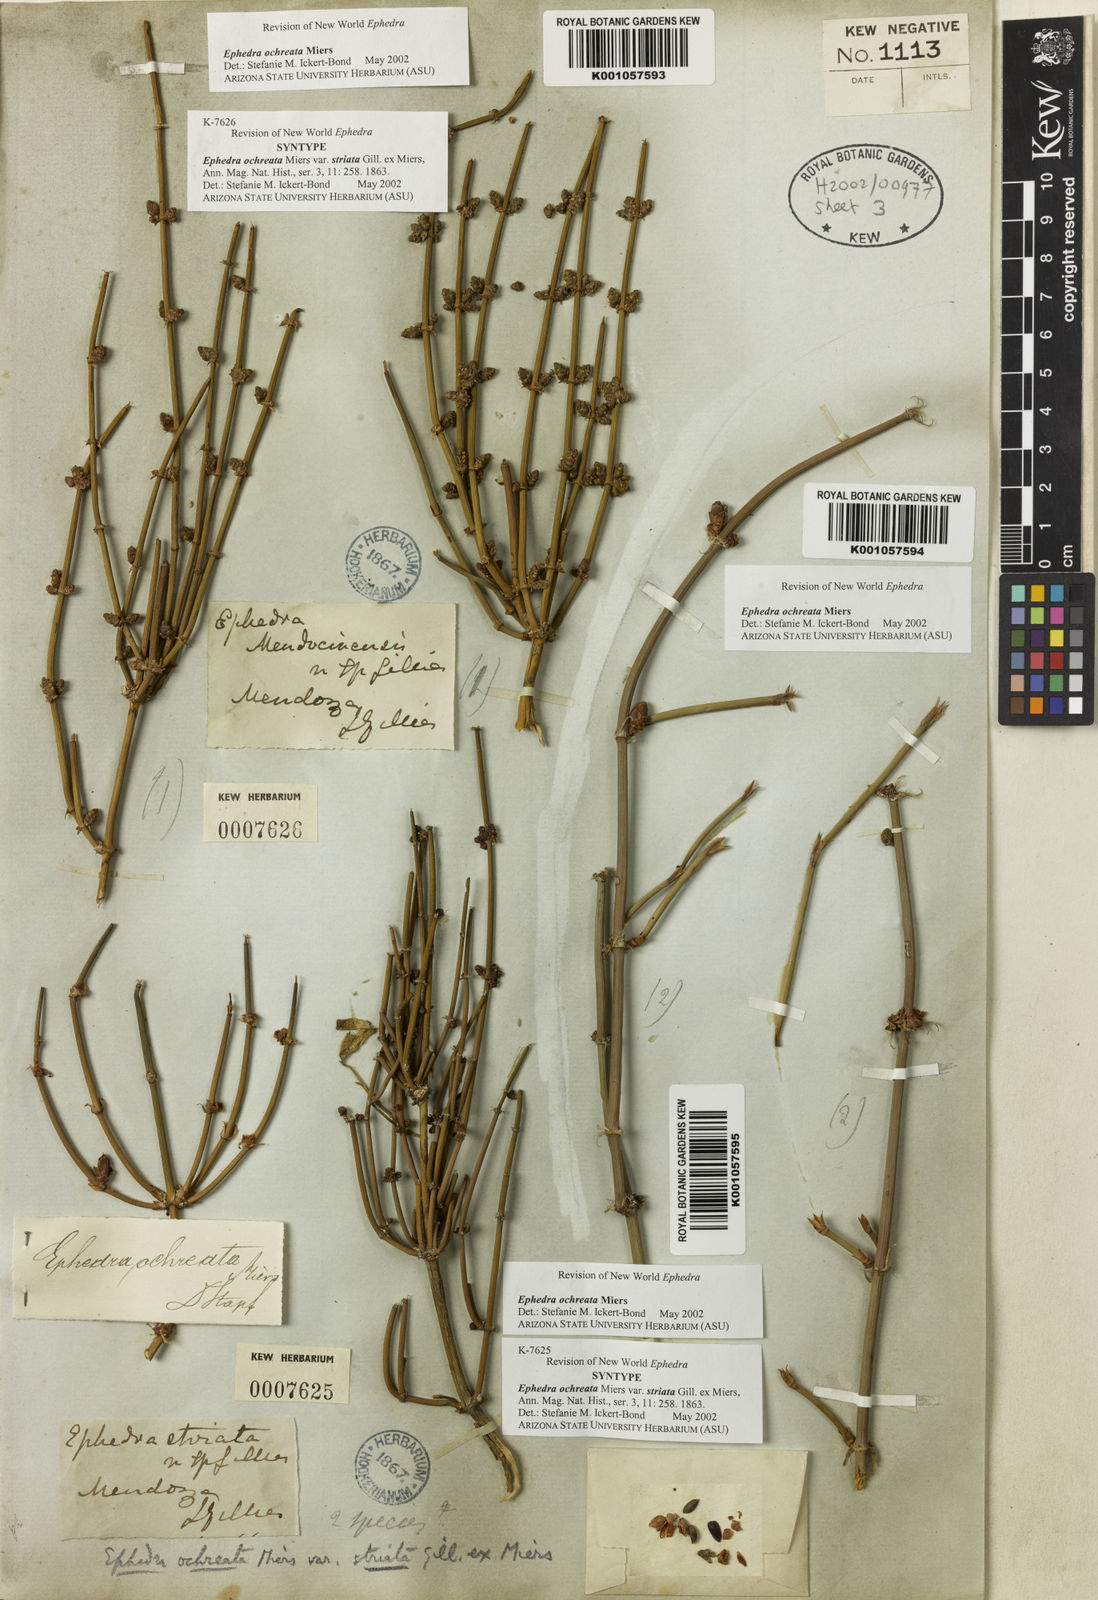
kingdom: Plantae
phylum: Tracheophyta
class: Gnetopsida
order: Ephedrales
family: Ephedraceae
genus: Ephedra
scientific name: Ephedra ochreata
